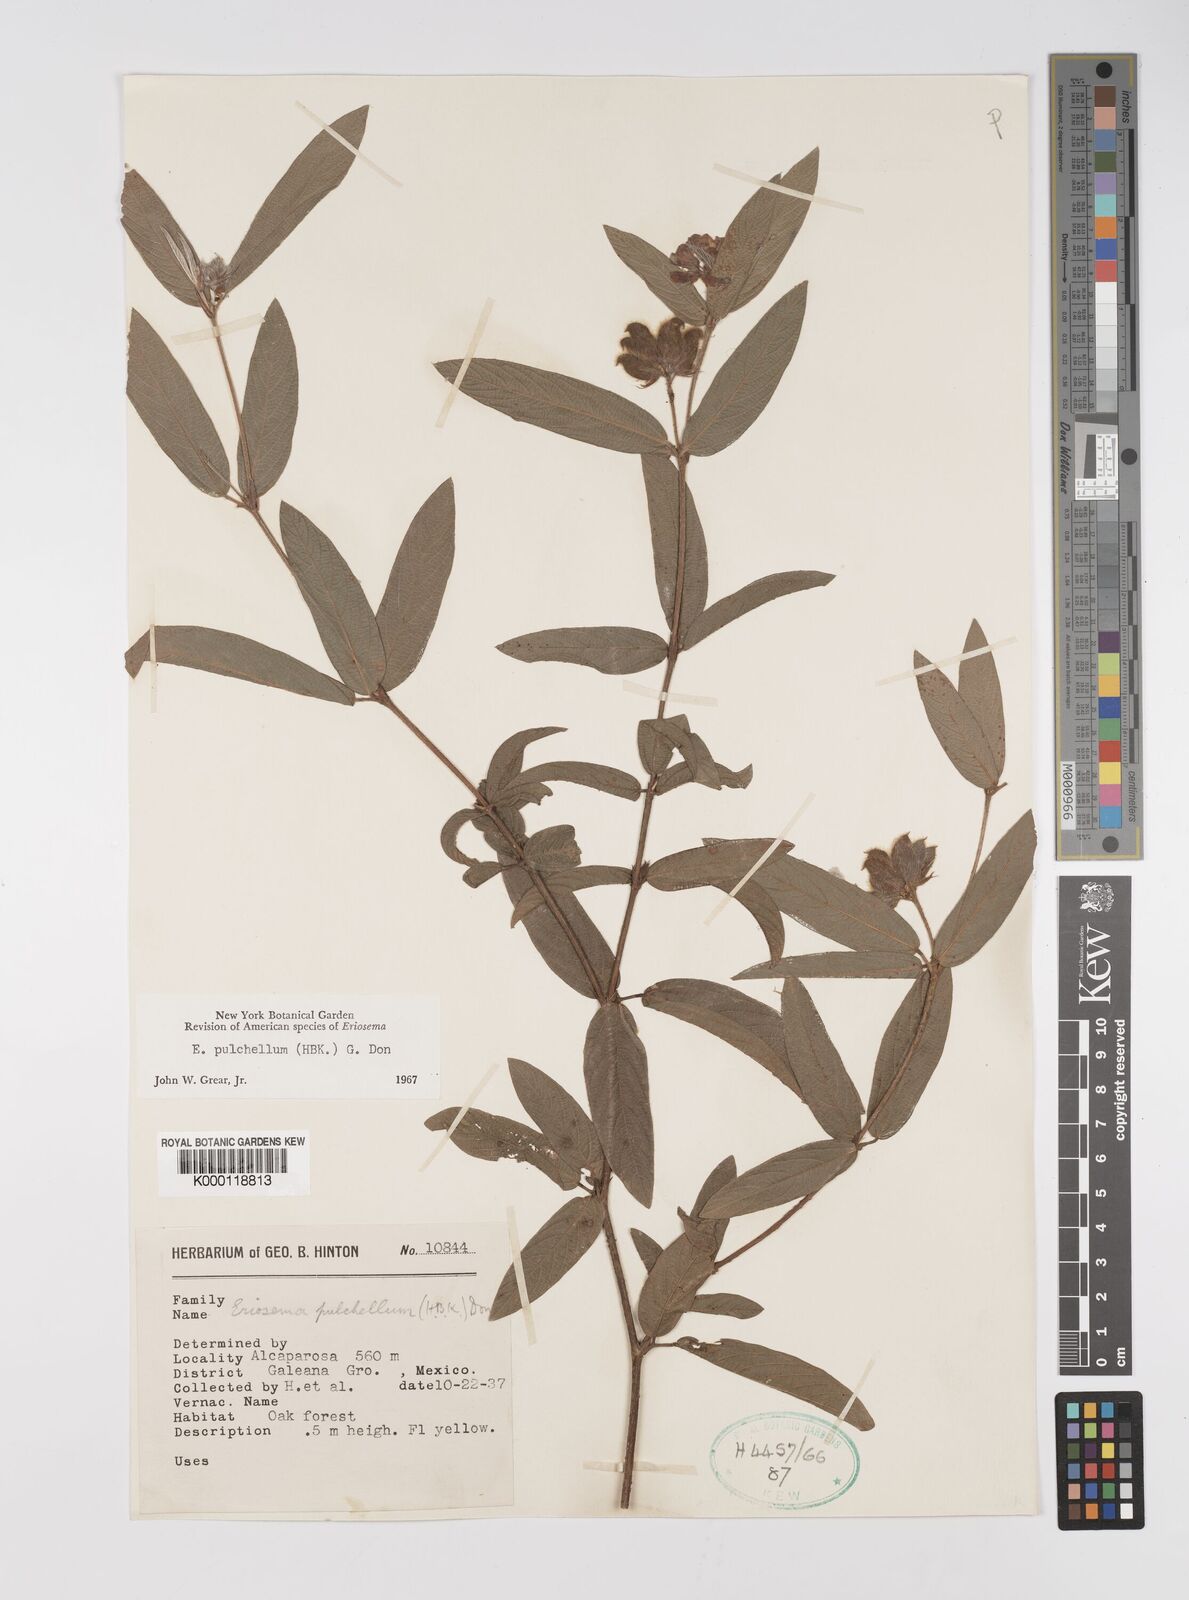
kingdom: Plantae
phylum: Tracheophyta
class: Magnoliopsida
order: Fabales
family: Fabaceae
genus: Eriosema
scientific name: Eriosema pulchellum
